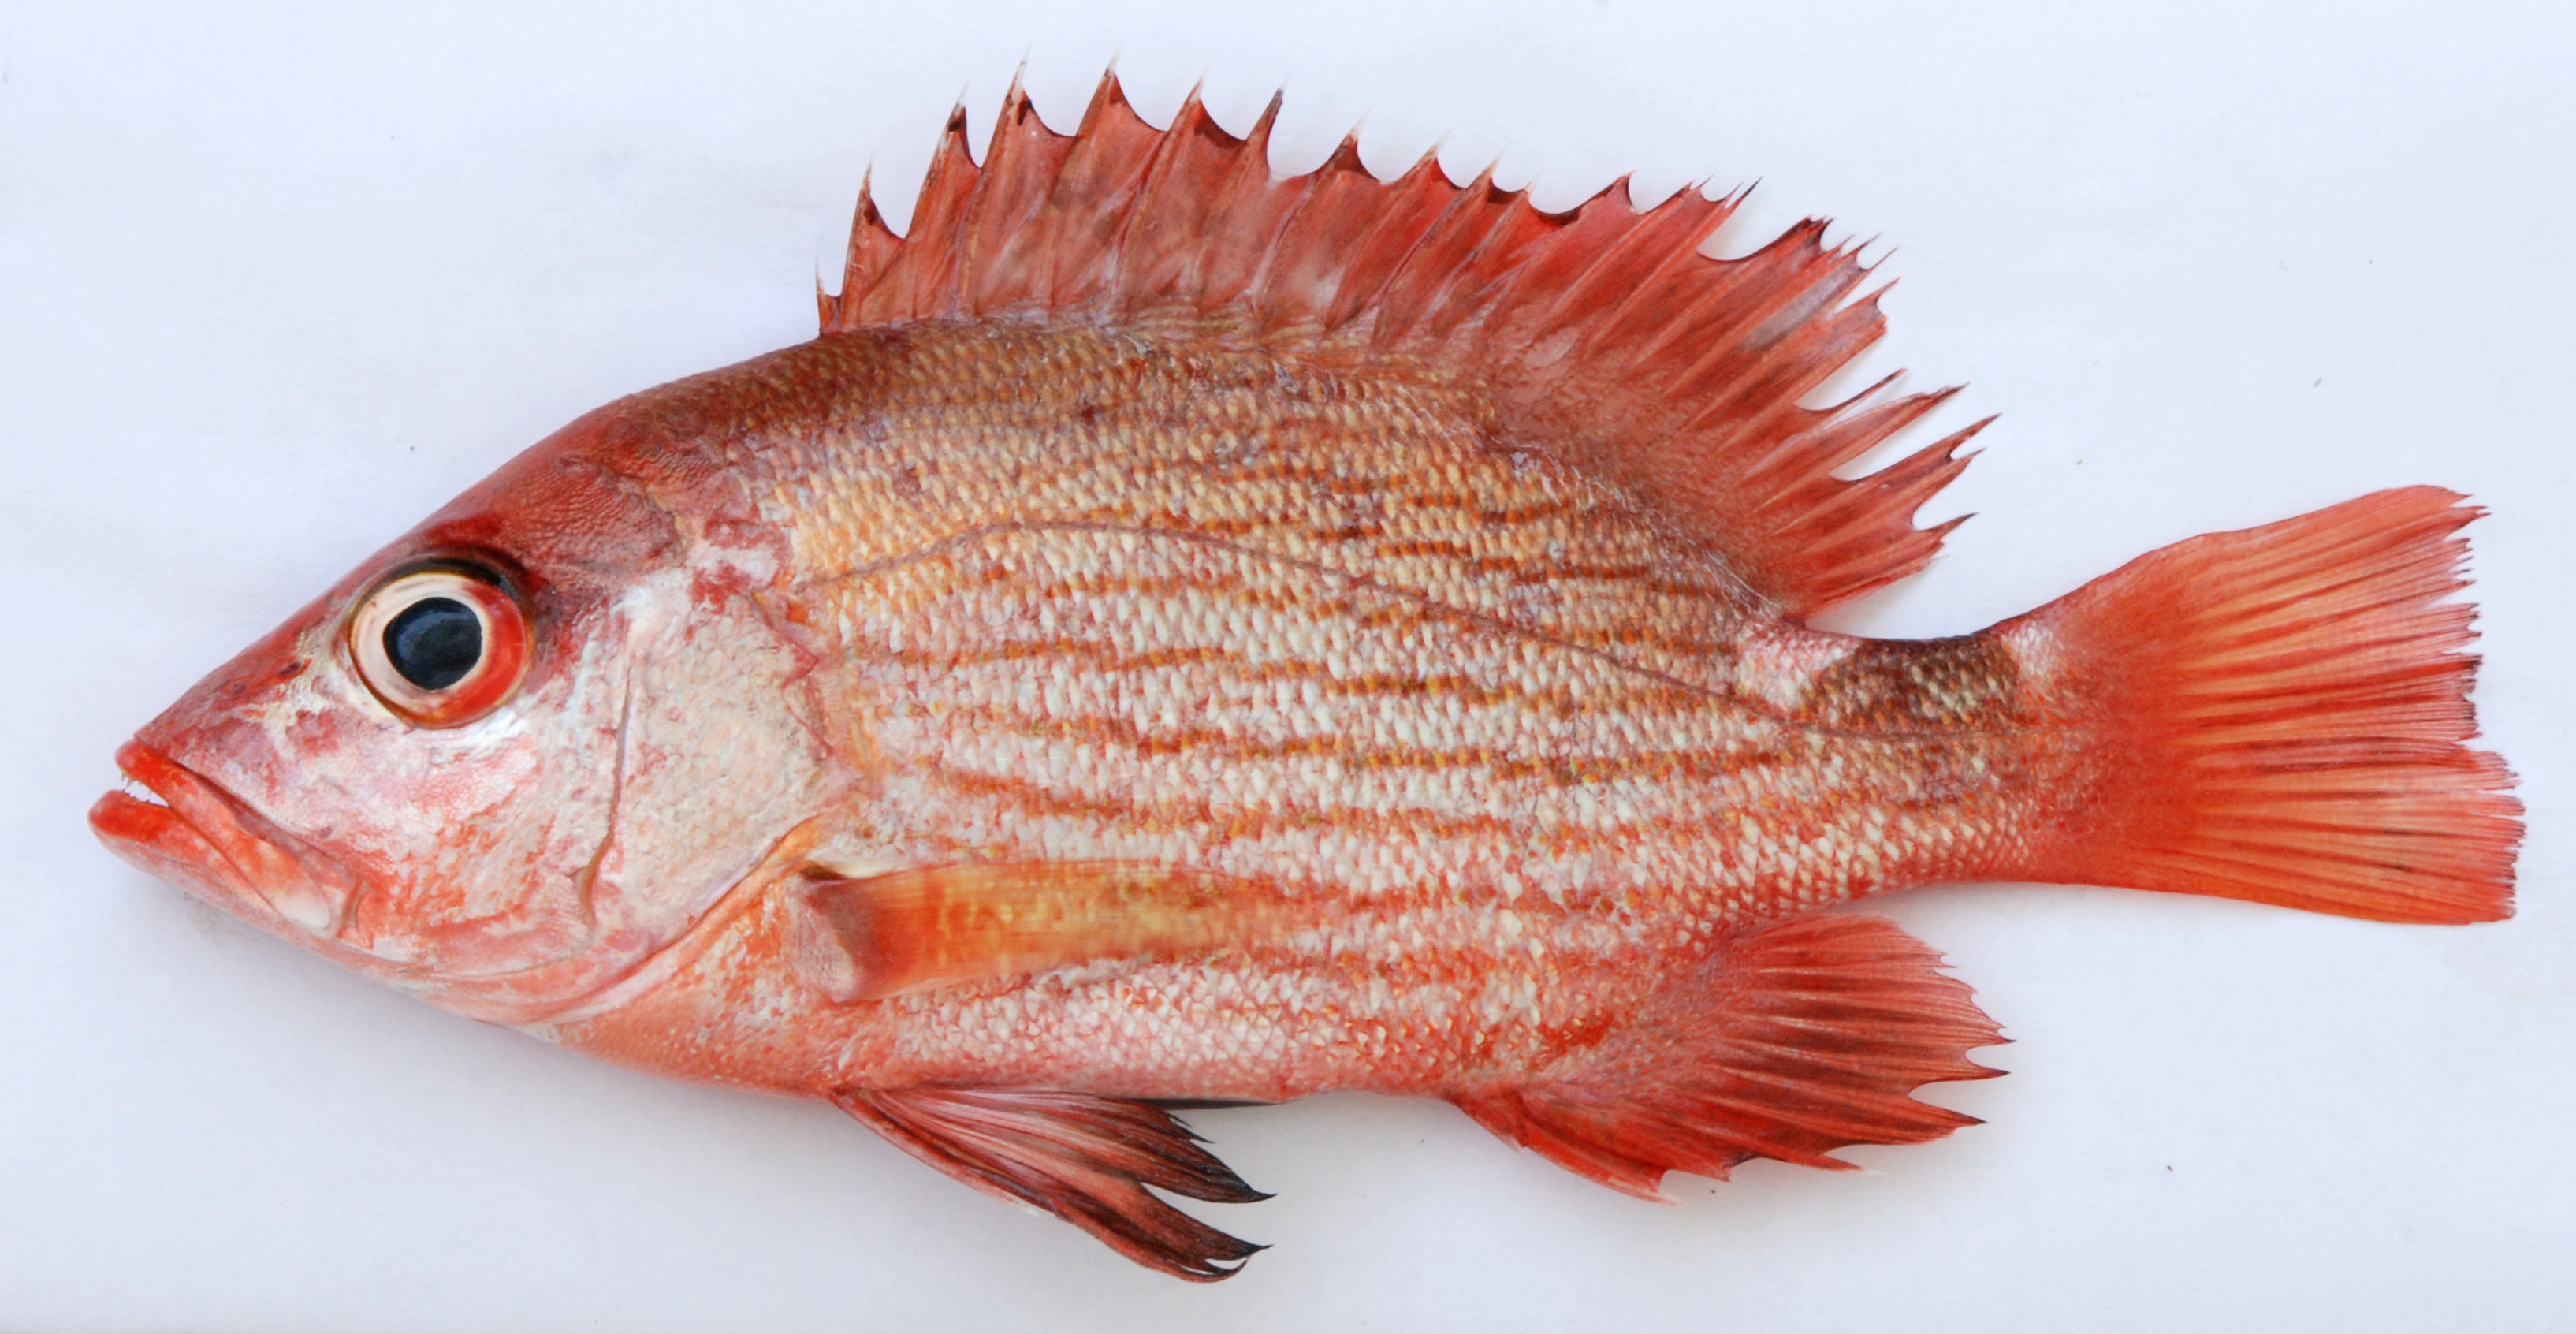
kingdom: Animalia
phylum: Chordata
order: Perciformes
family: Lutjanidae
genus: Lutjanus
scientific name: Lutjanus malabaricus
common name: Malabar snapper
